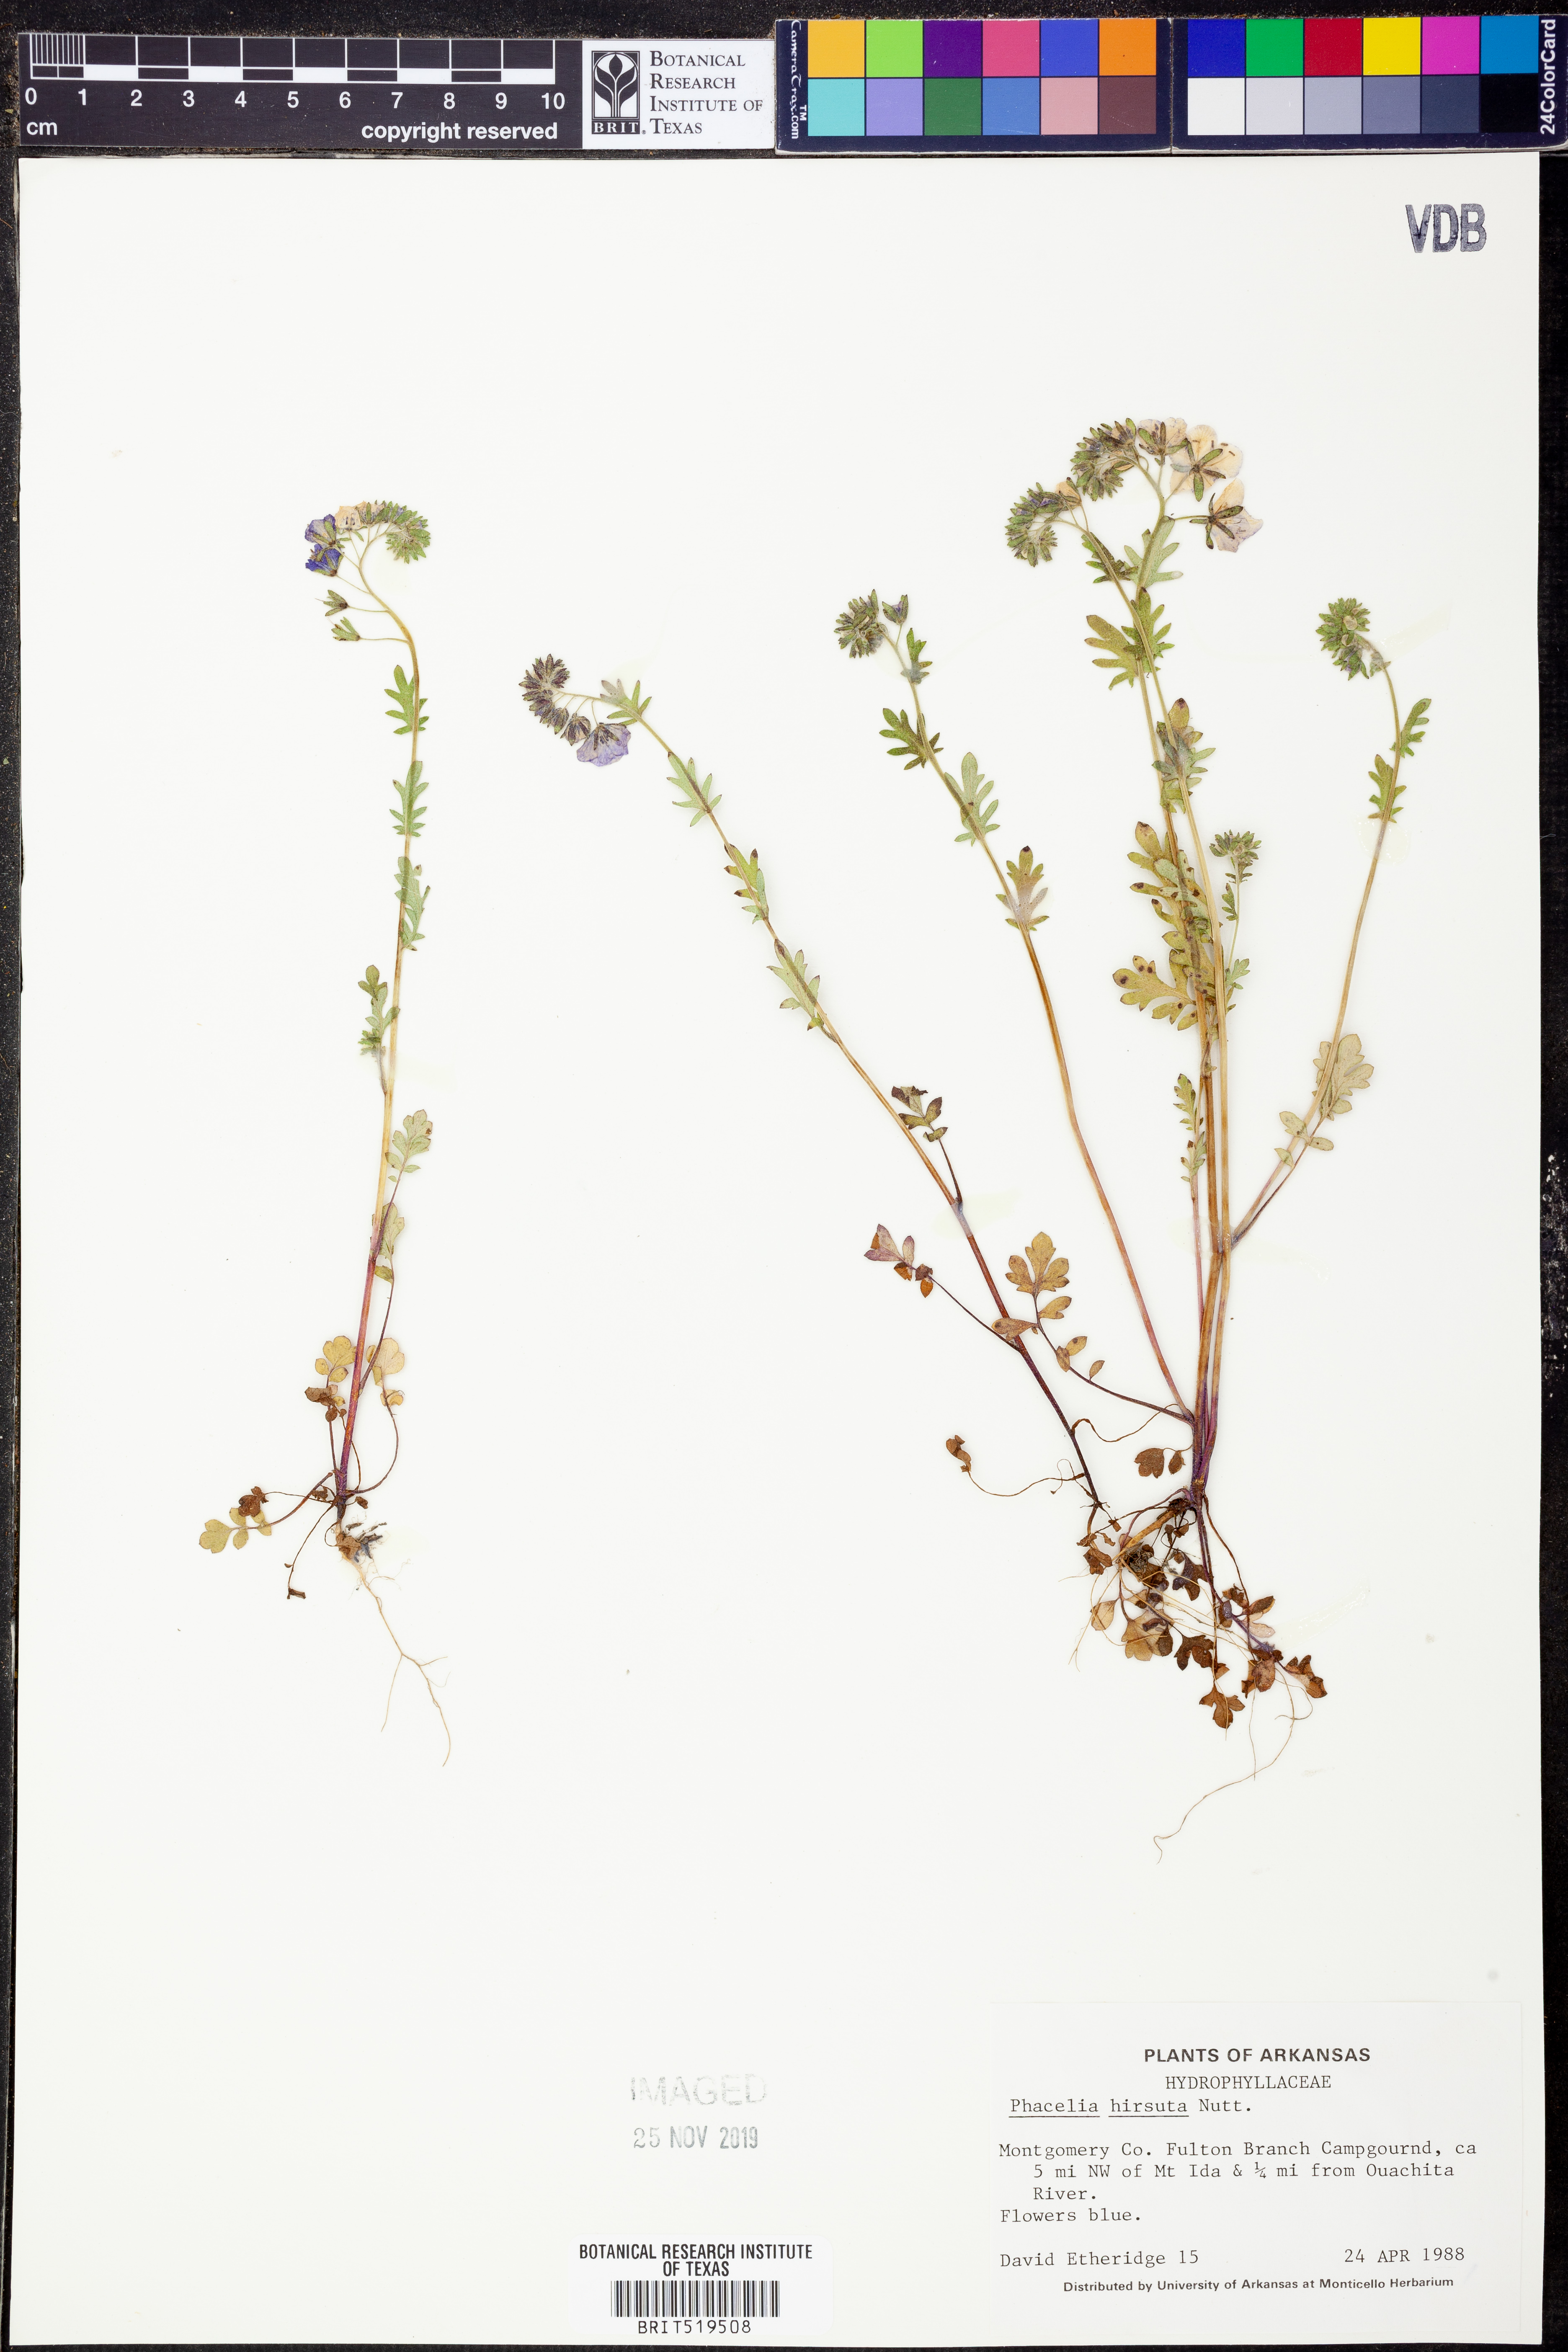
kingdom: Plantae
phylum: Tracheophyta
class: Magnoliopsida
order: Boraginales
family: Hydrophyllaceae
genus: Phacelia
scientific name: Phacelia hirsuta
